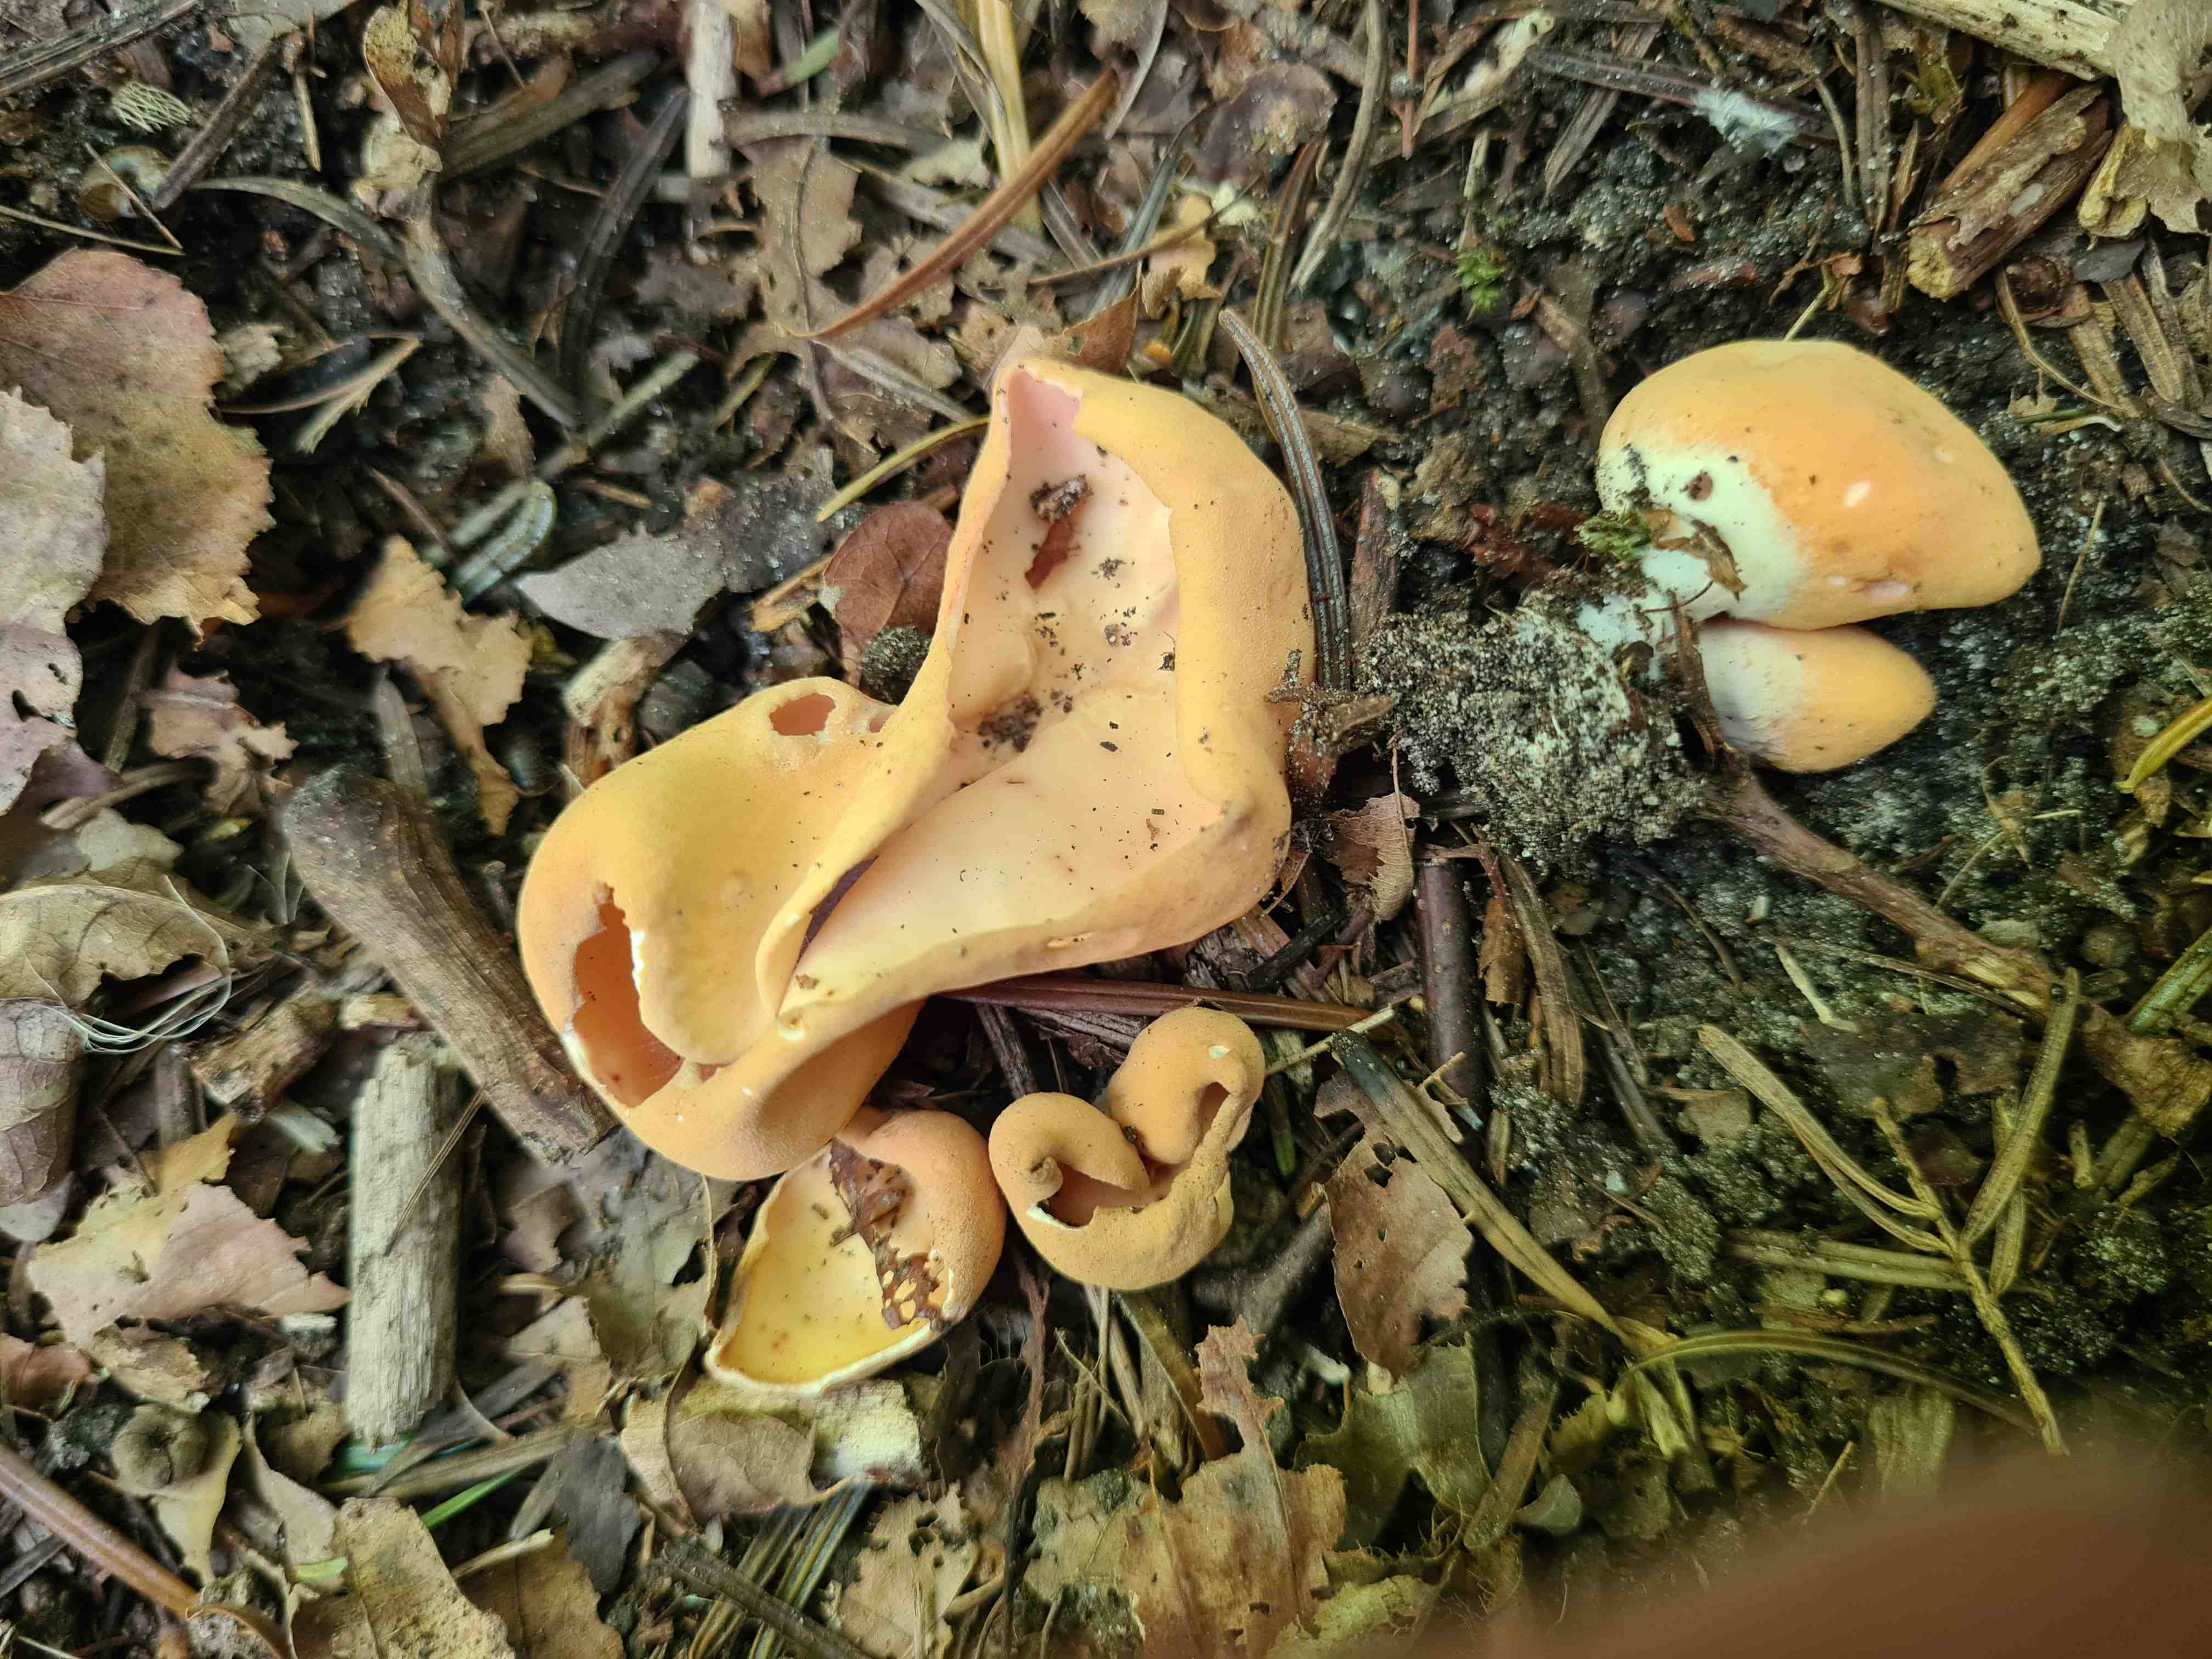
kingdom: Fungi
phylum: Ascomycota
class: Pezizomycetes
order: Pezizales
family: Otideaceae
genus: Otidea
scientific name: Otidea onotica
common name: æsel-ørebæger
